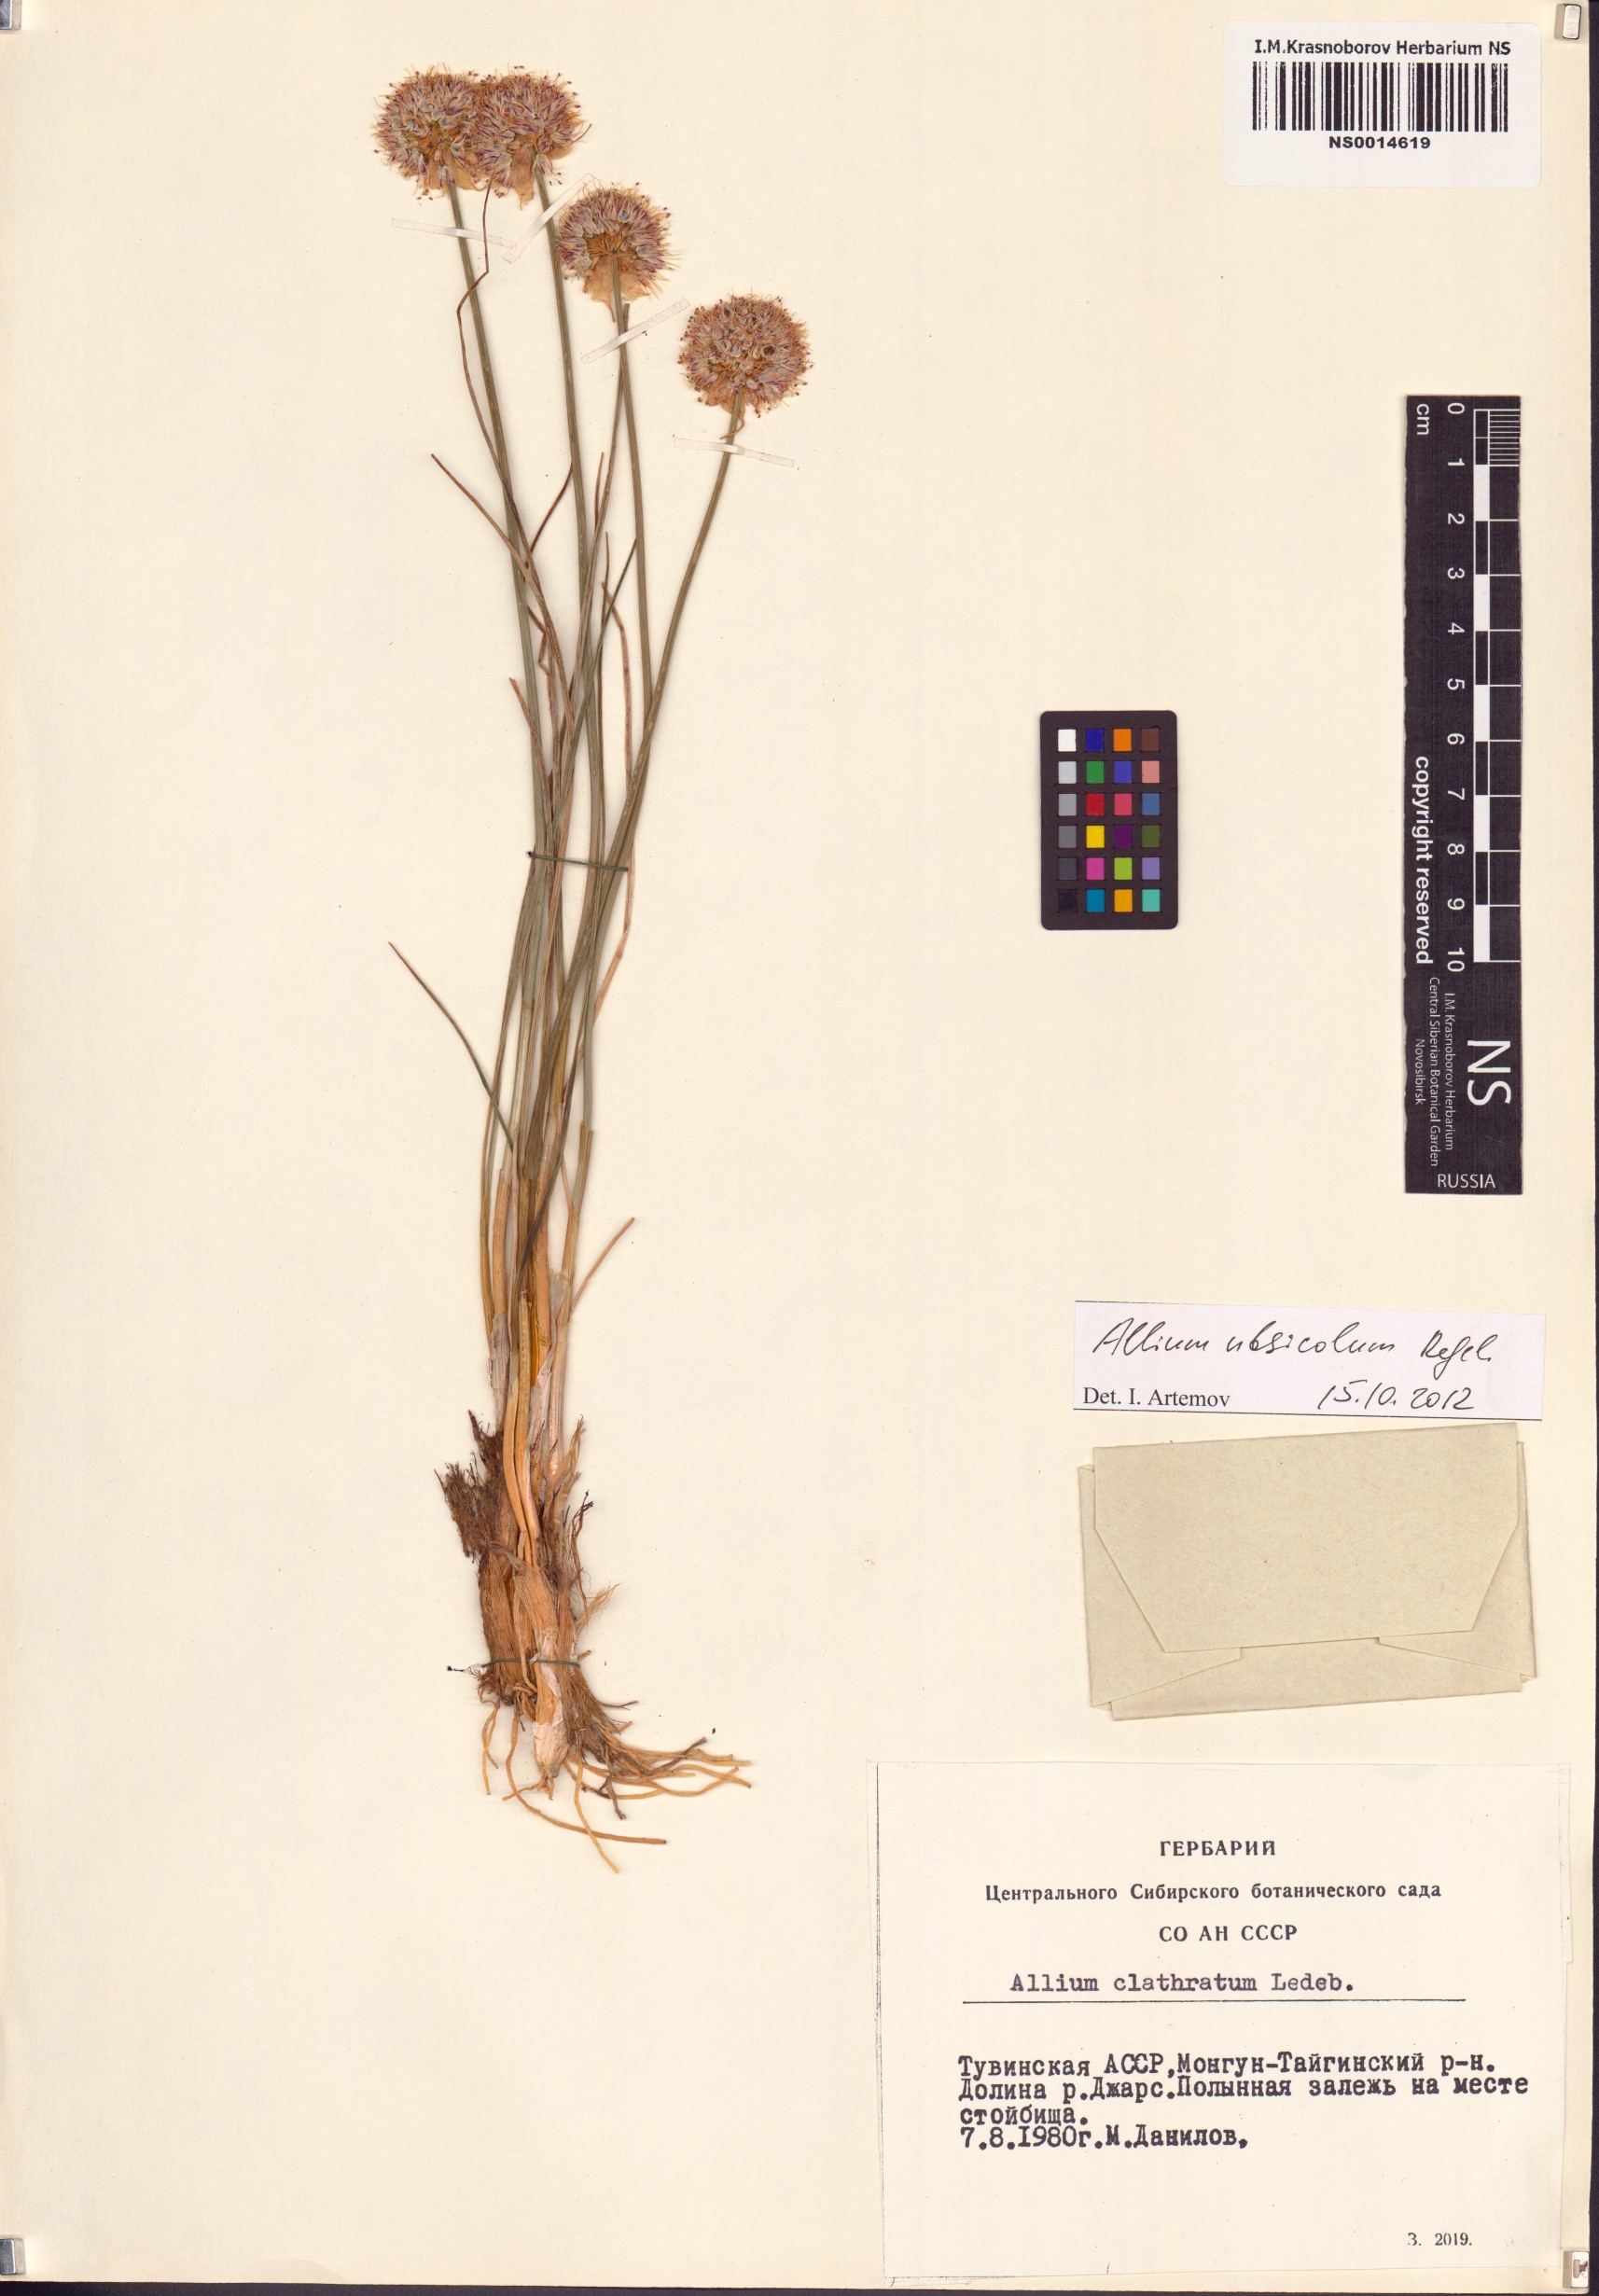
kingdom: Plantae
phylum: Tracheophyta
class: Liliopsida
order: Asparagales
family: Amaryllidaceae
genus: Allium
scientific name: Allium ubsicola
